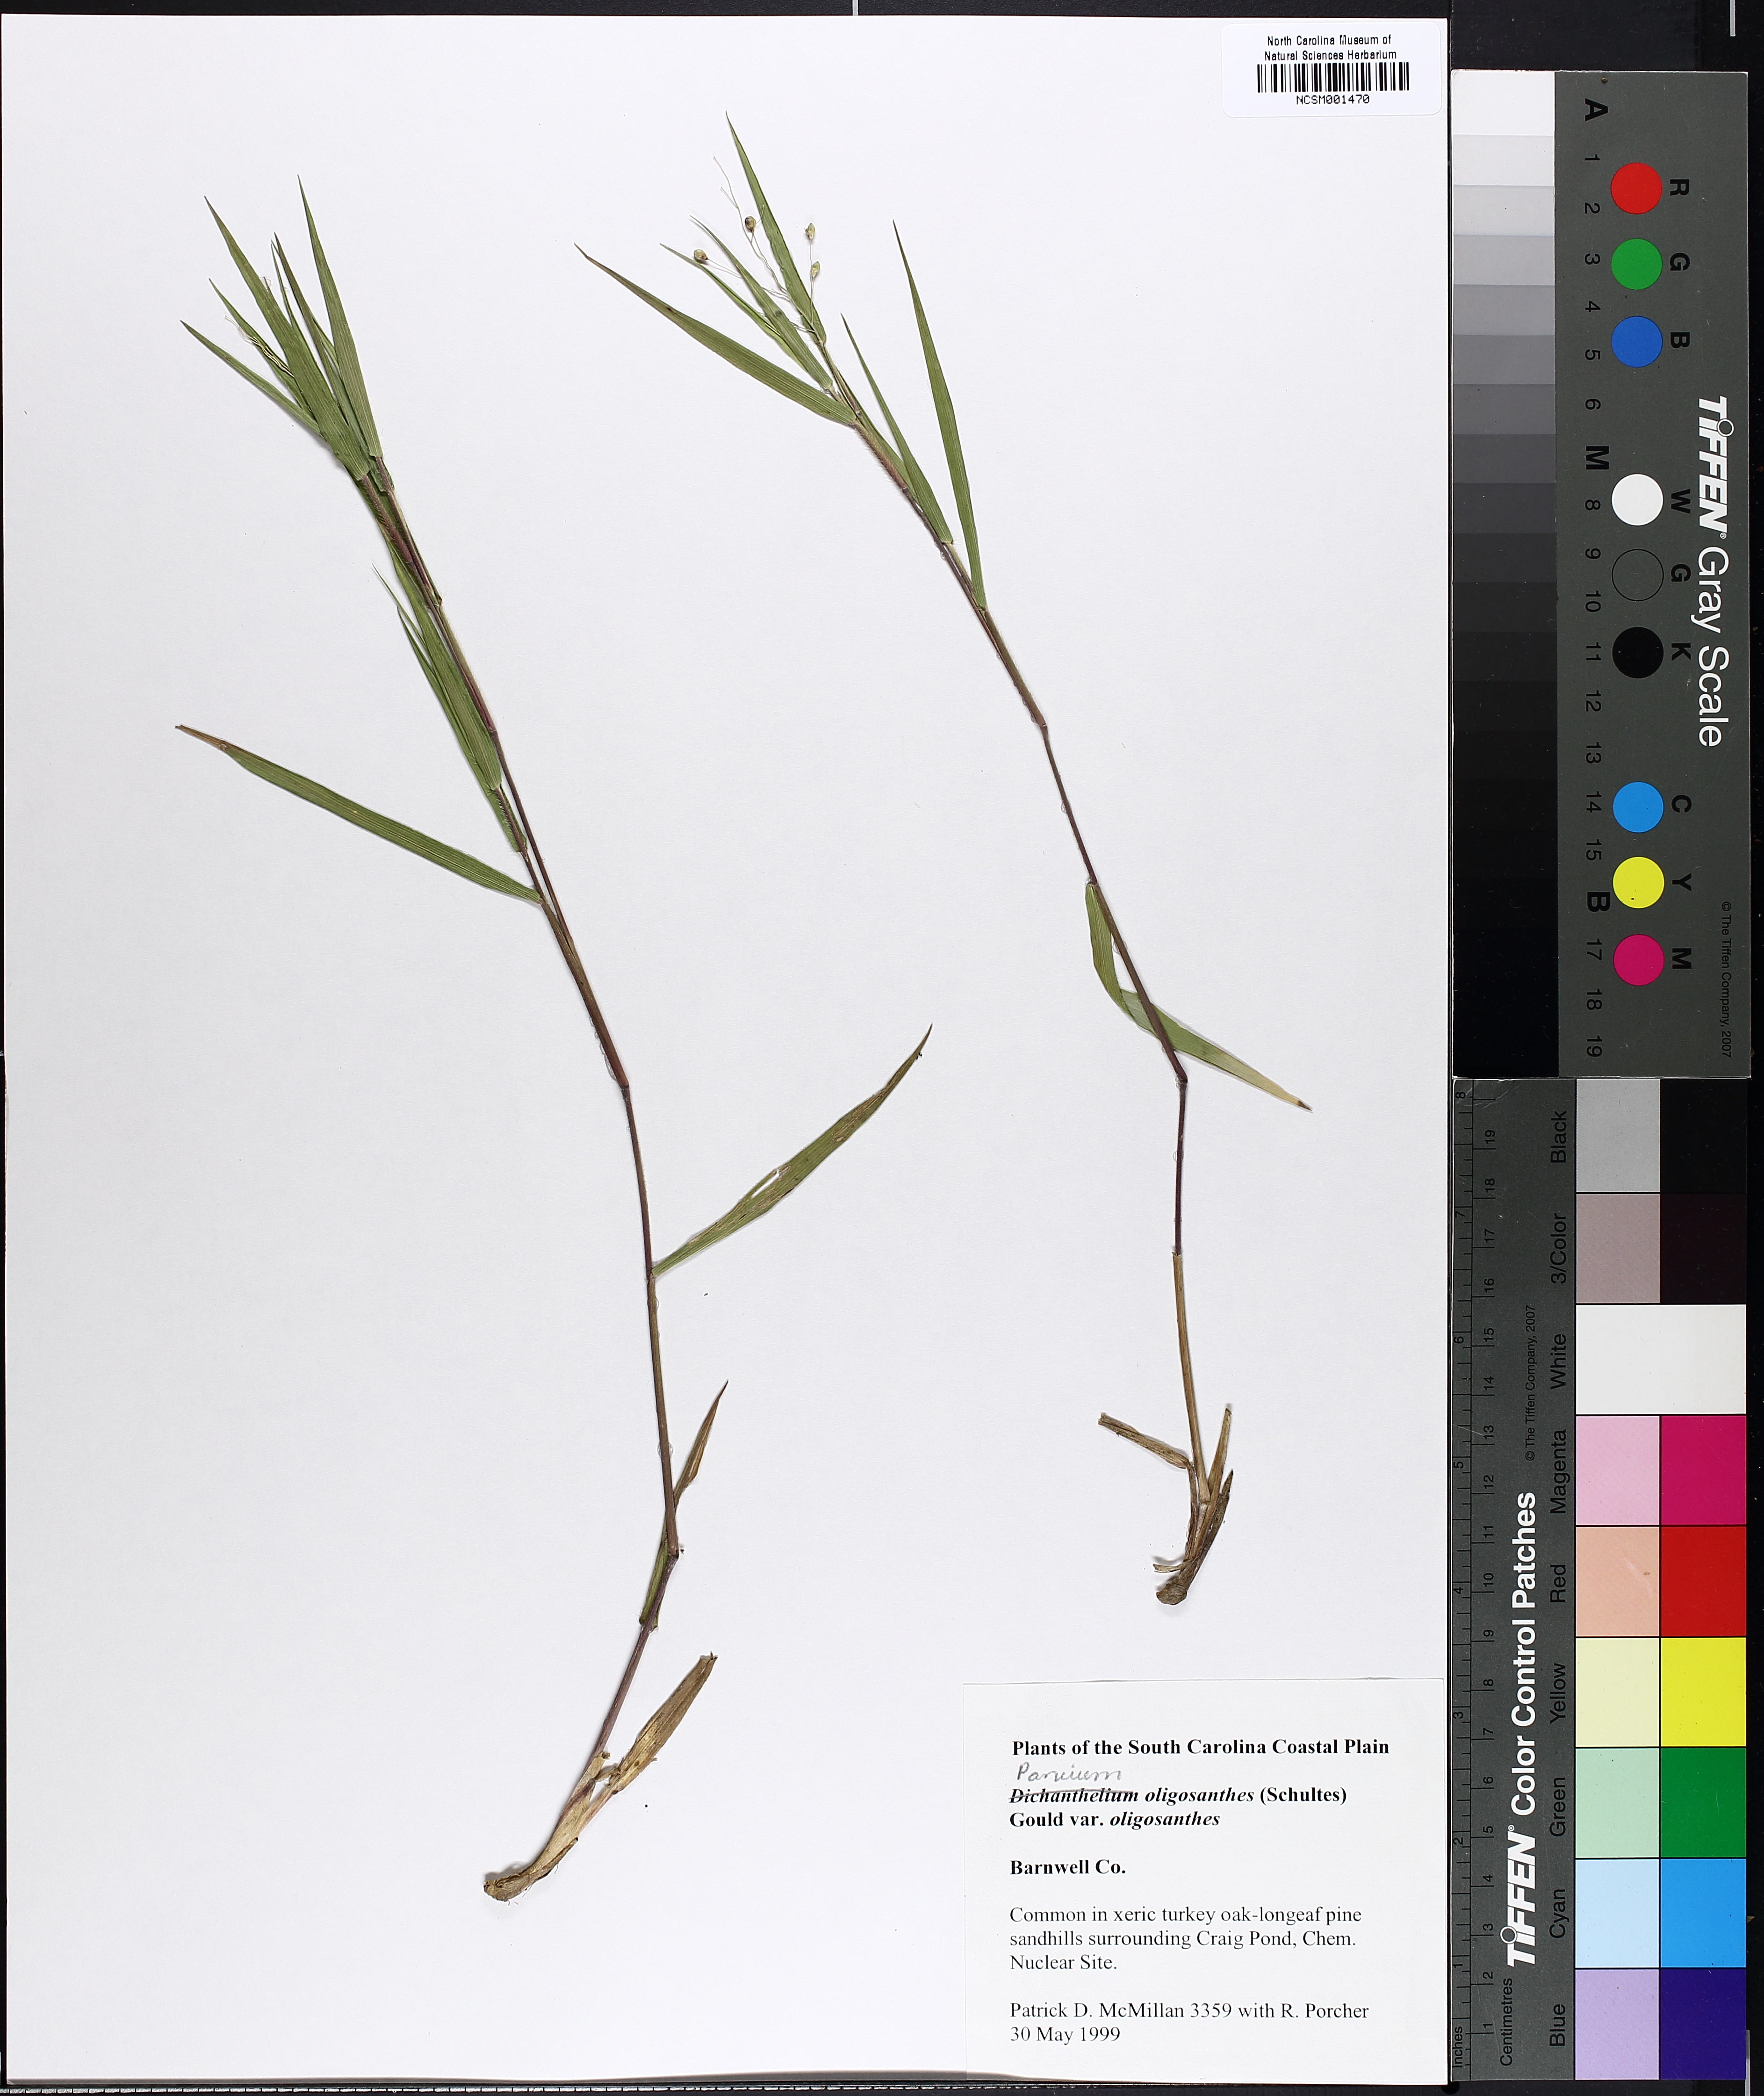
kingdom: Plantae
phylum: Tracheophyta
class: Liliopsida
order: Poales
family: Poaceae
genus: Dichanthelium
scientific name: Dichanthelium oligosanthes
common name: Few-anther obscuregrass
